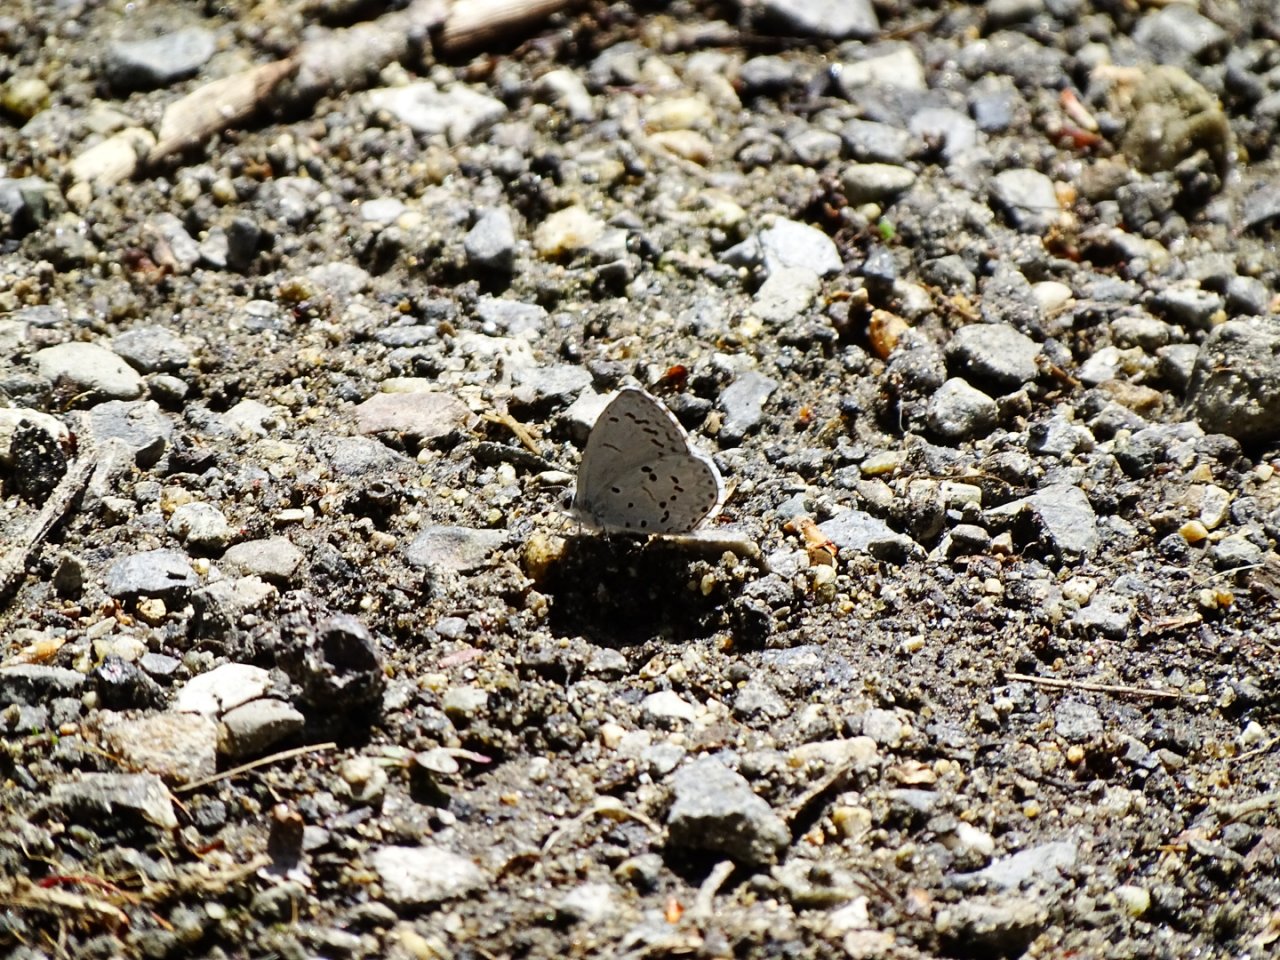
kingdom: Animalia
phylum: Arthropoda
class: Insecta
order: Lepidoptera
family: Lycaenidae
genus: Celastrina
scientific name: Celastrina ladon
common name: Spring Azure
